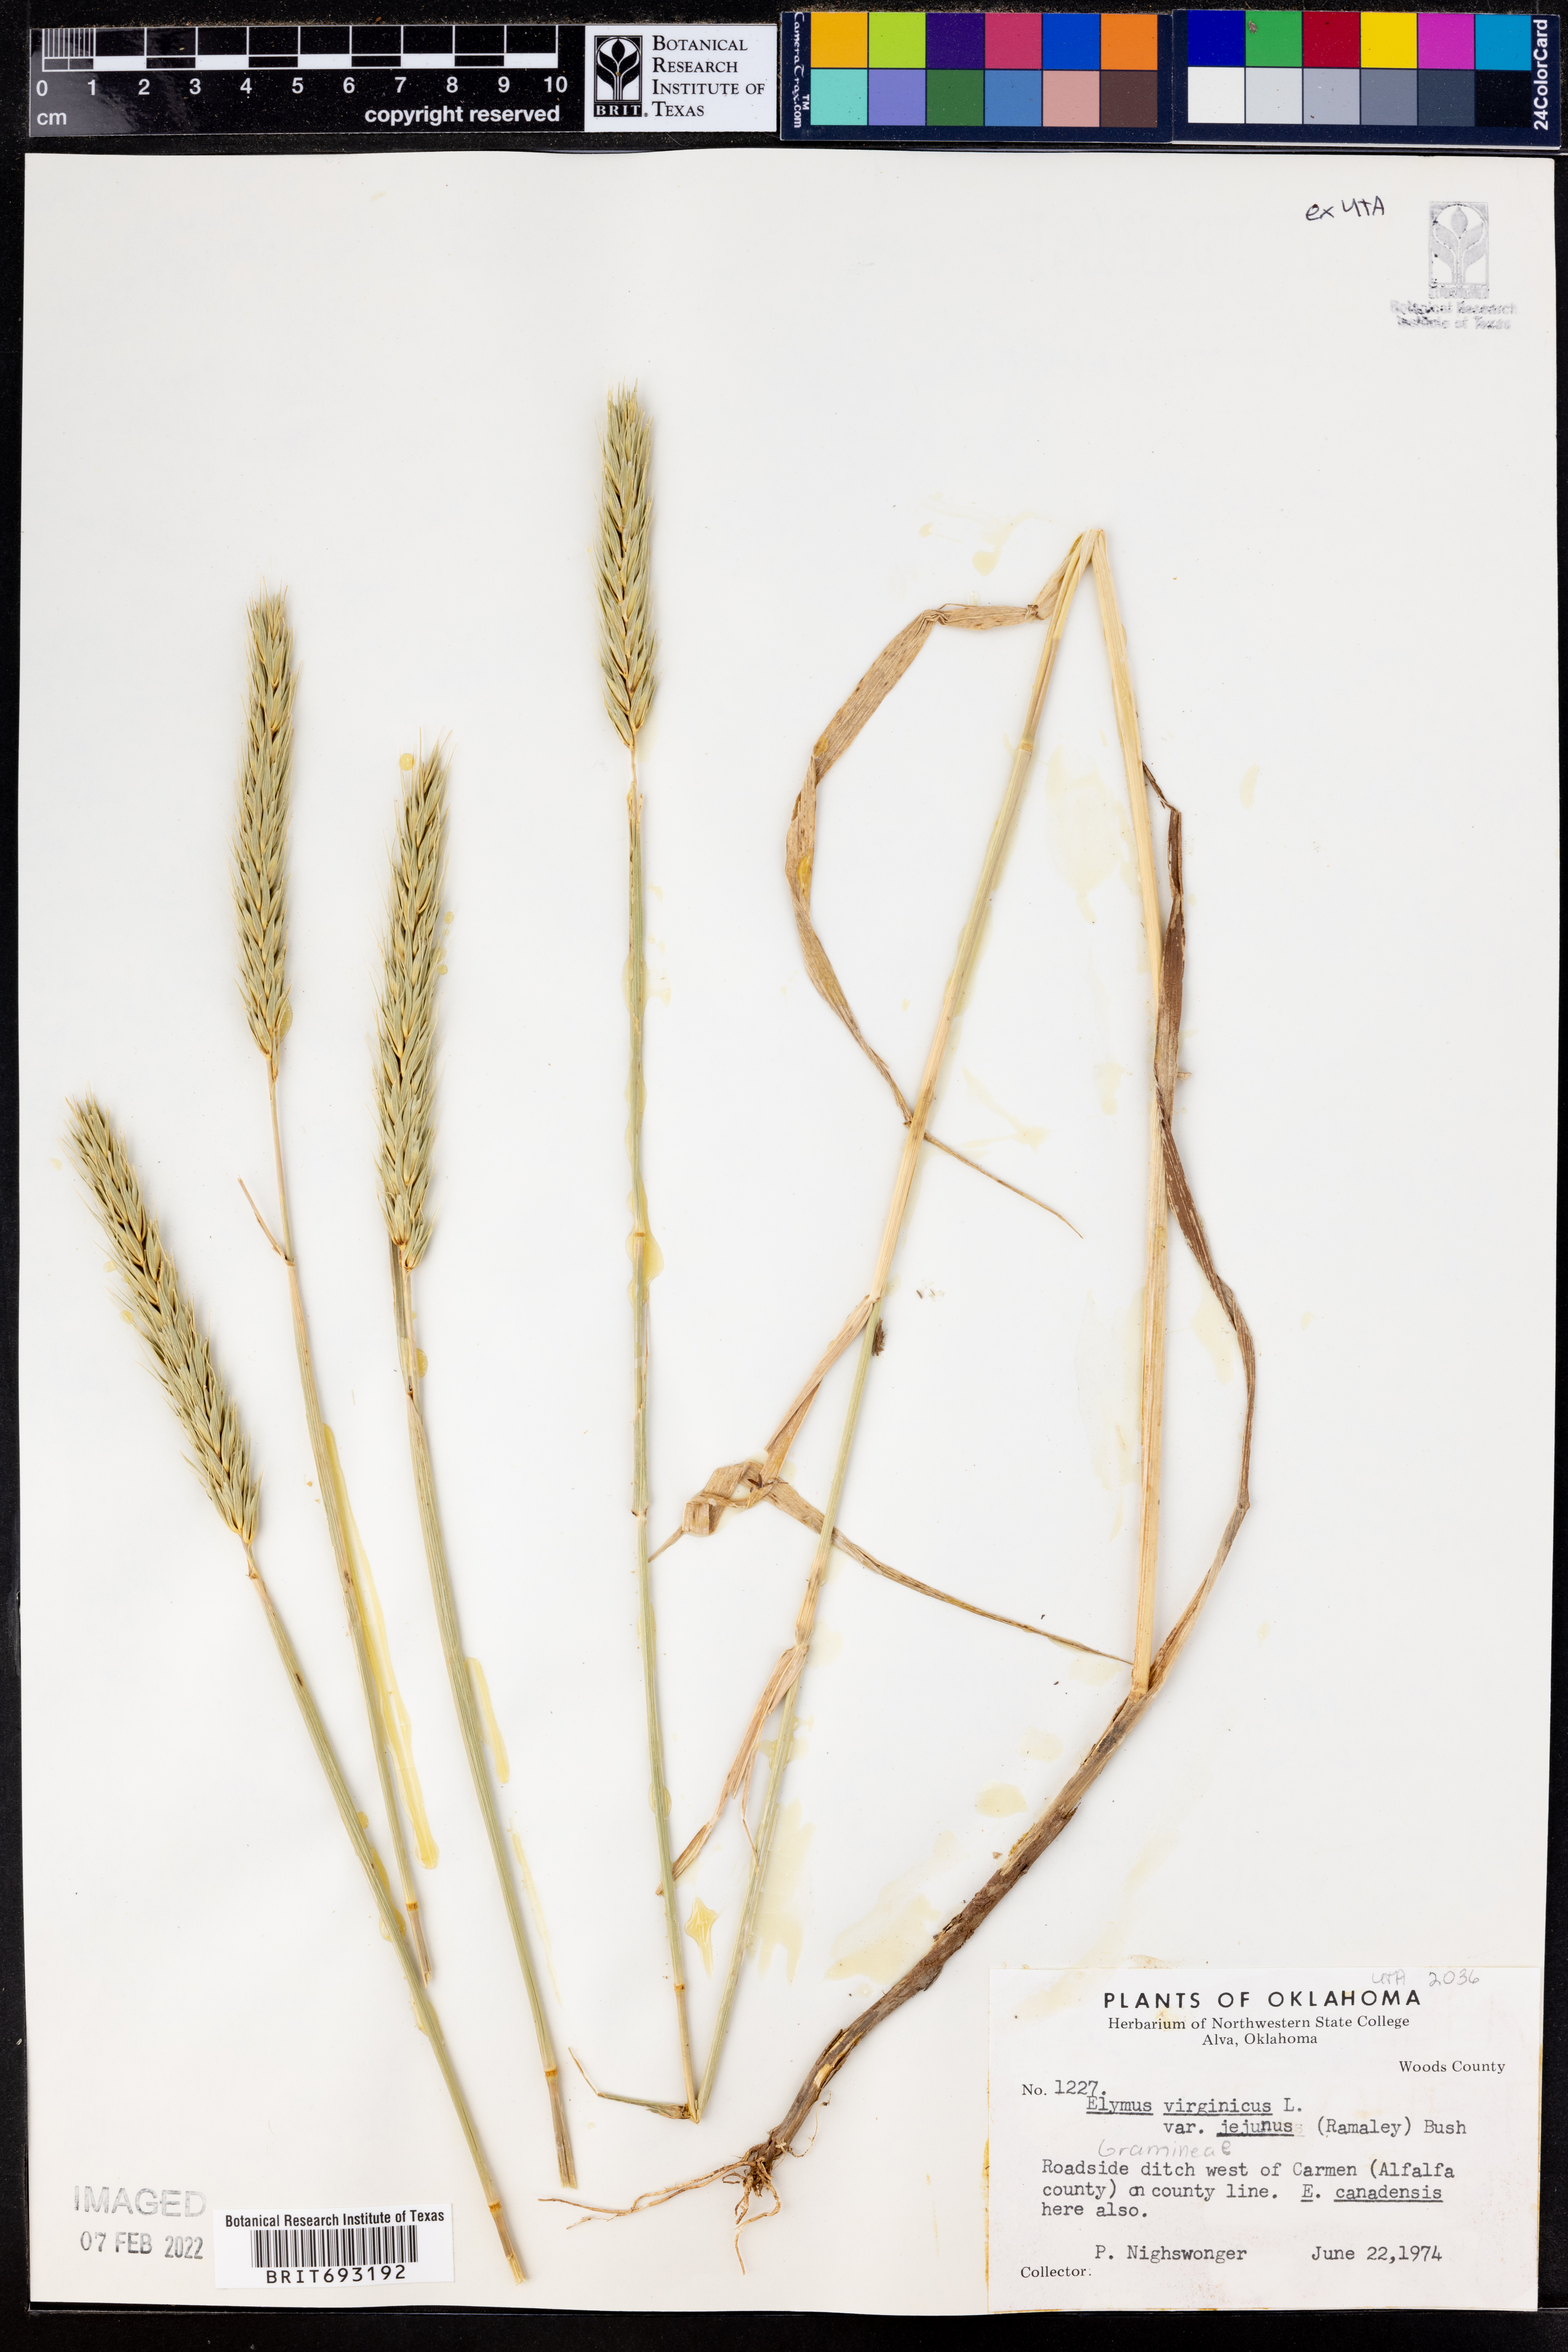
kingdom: Plantae
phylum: Tracheophyta
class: Liliopsida
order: Poales
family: Poaceae
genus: Elymus
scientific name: Elymus virginicus
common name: Common eastern wildrye
